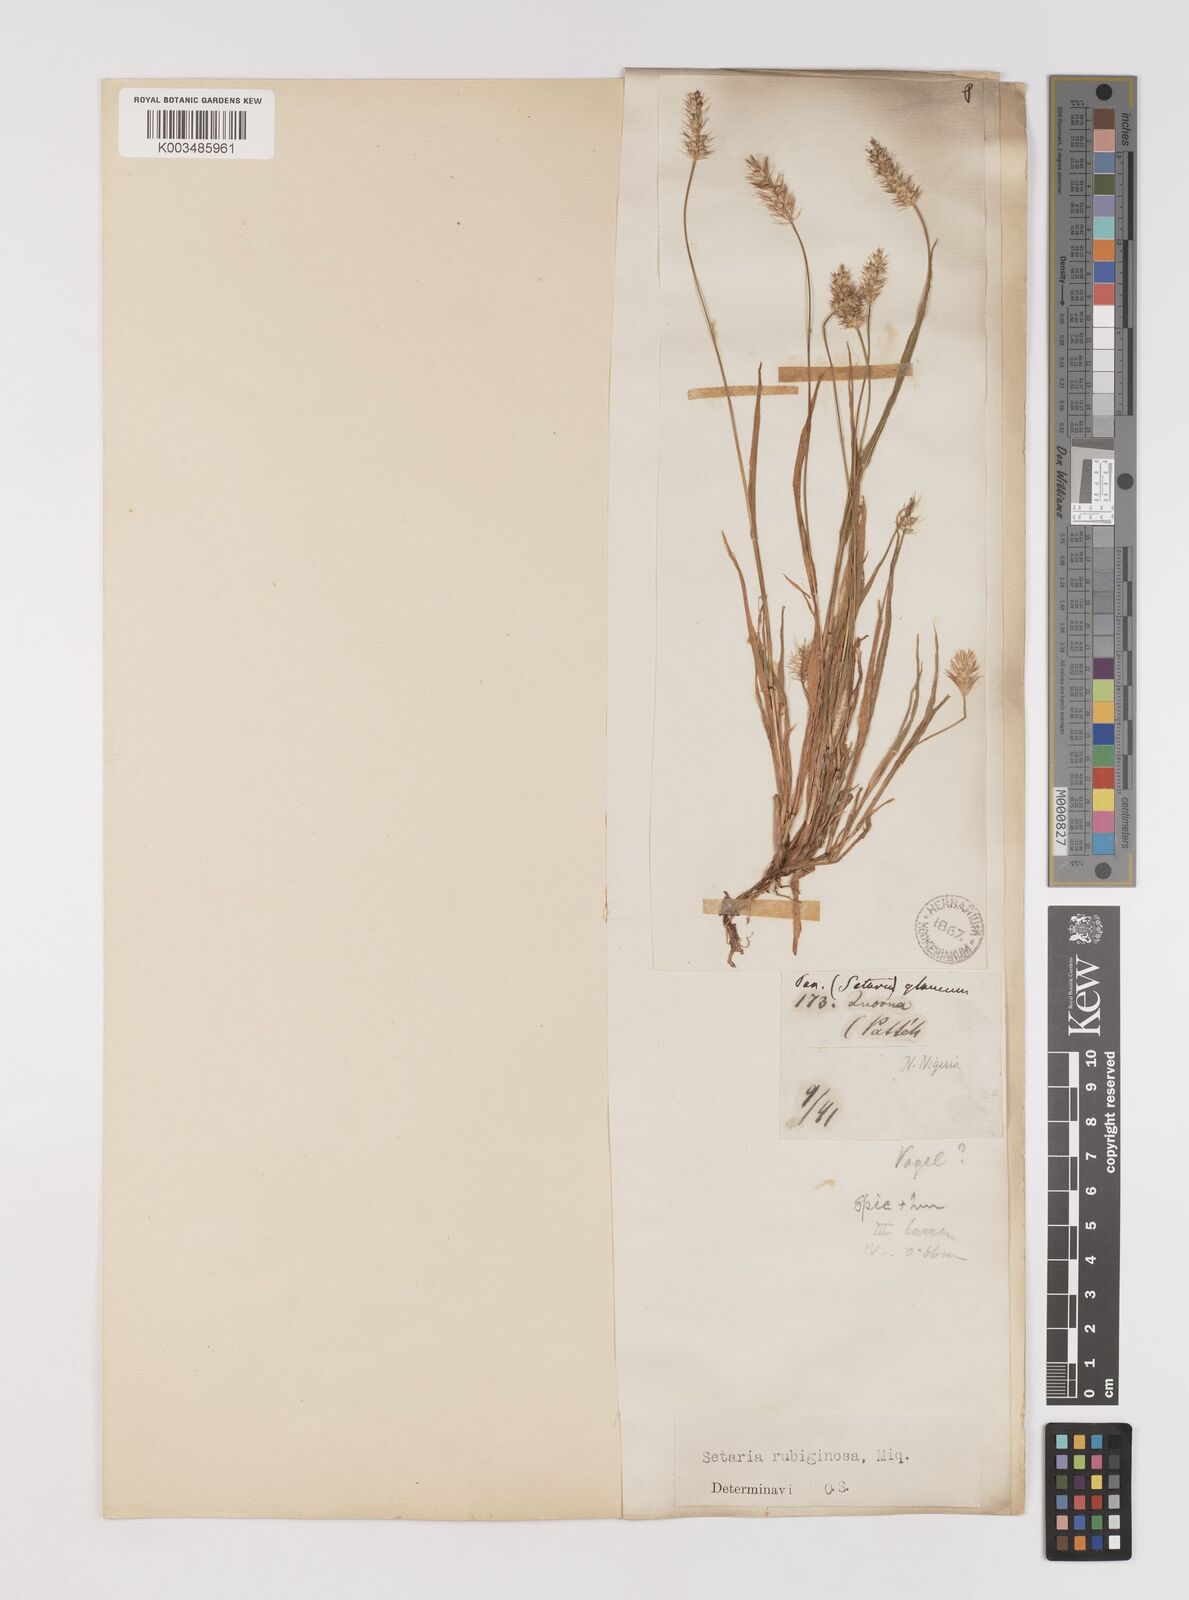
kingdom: Plantae
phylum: Tracheophyta
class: Liliopsida
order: Poales
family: Poaceae
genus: Setaria
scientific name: Setaria pumila
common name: Yellow bristle-grass
